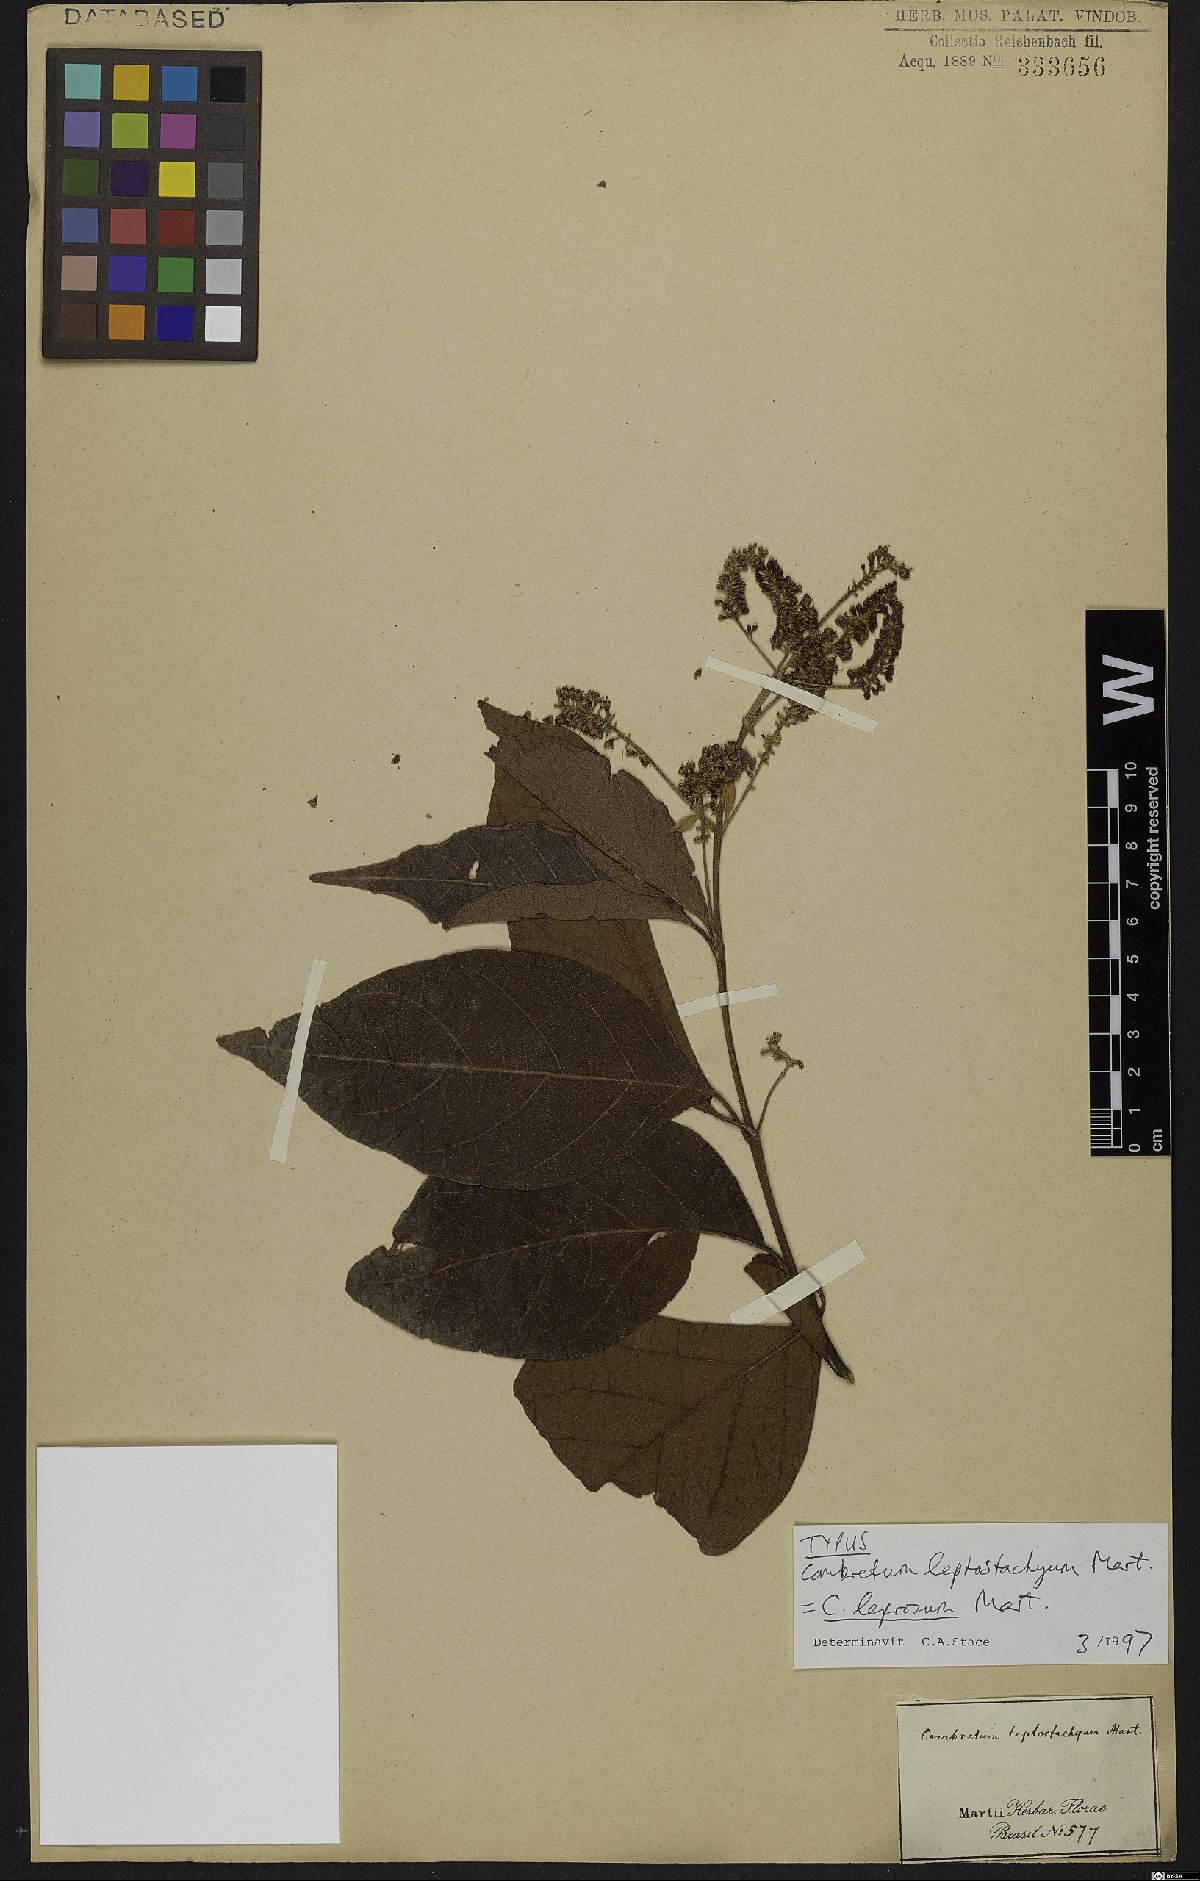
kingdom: Plantae
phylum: Tracheophyta
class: Magnoliopsida
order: Myrtales
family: Combretaceae
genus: Combretum
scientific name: Combretum leprosum
